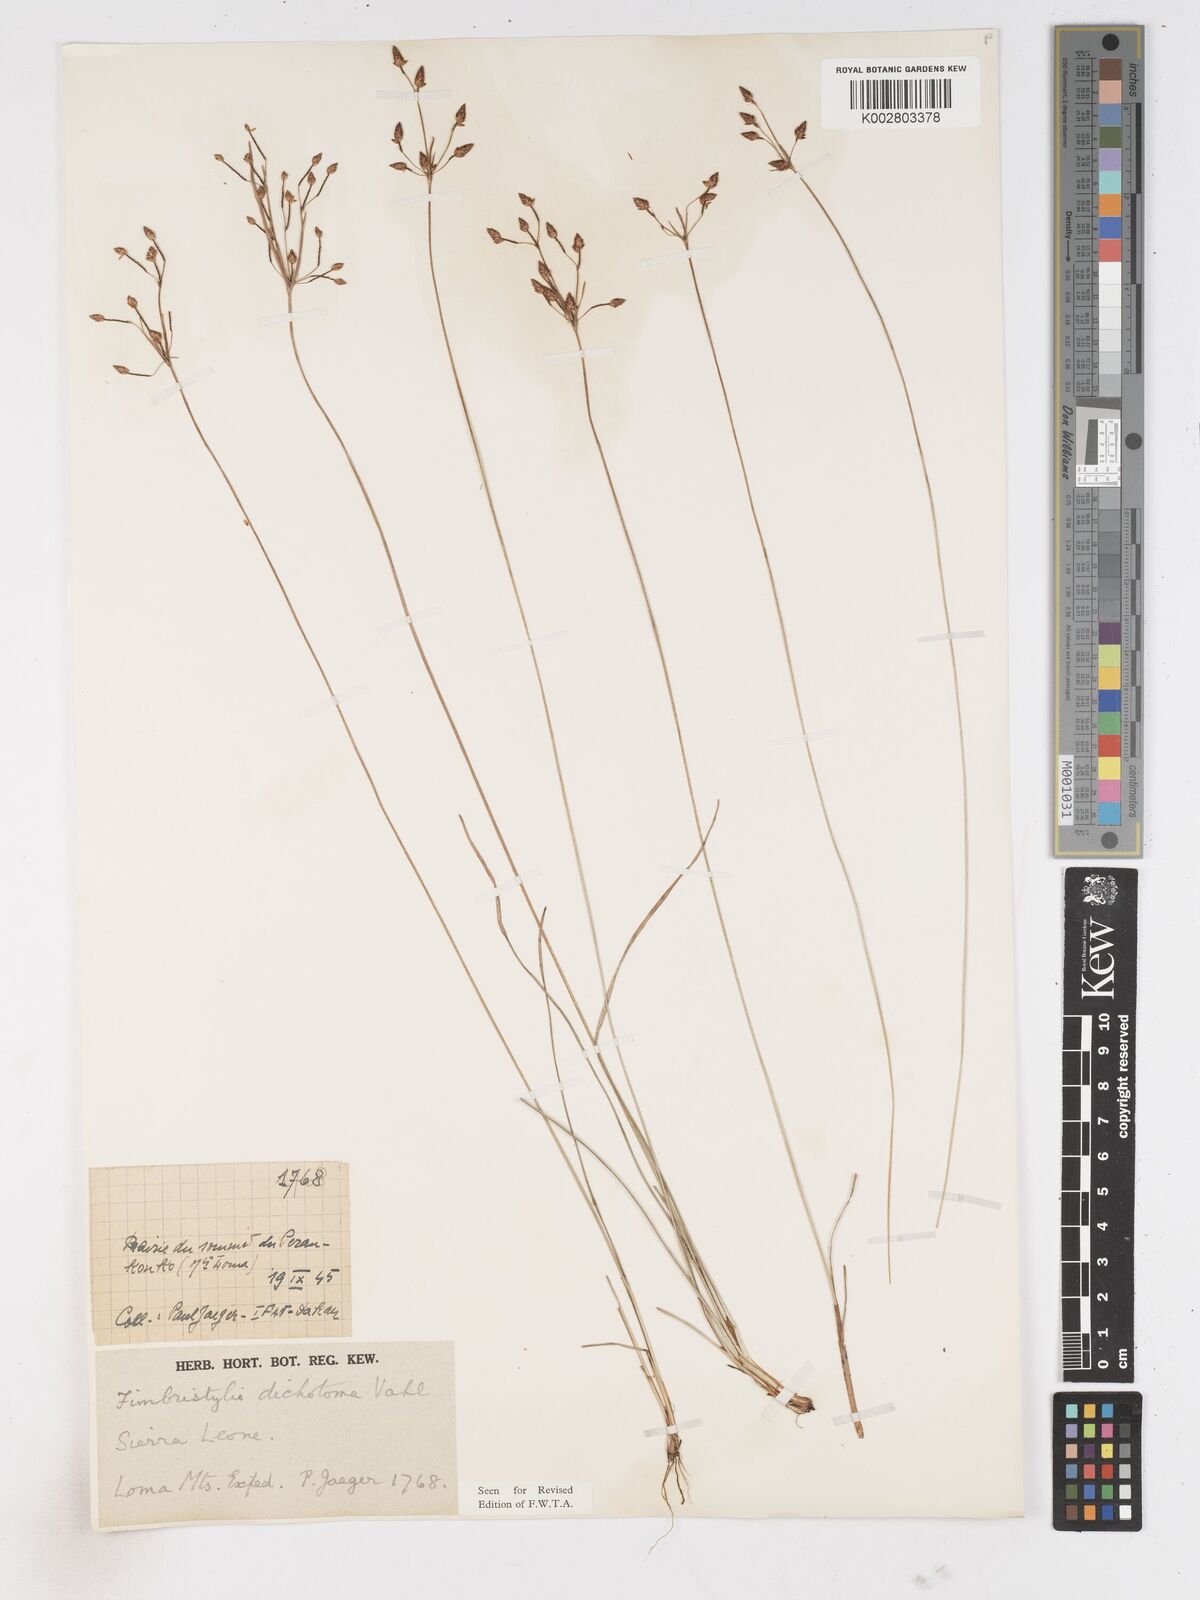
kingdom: Plantae
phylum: Tracheophyta
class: Liliopsida
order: Poales
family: Cyperaceae
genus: Fimbristylis
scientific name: Fimbristylis dichotoma
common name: Forked fimbry
